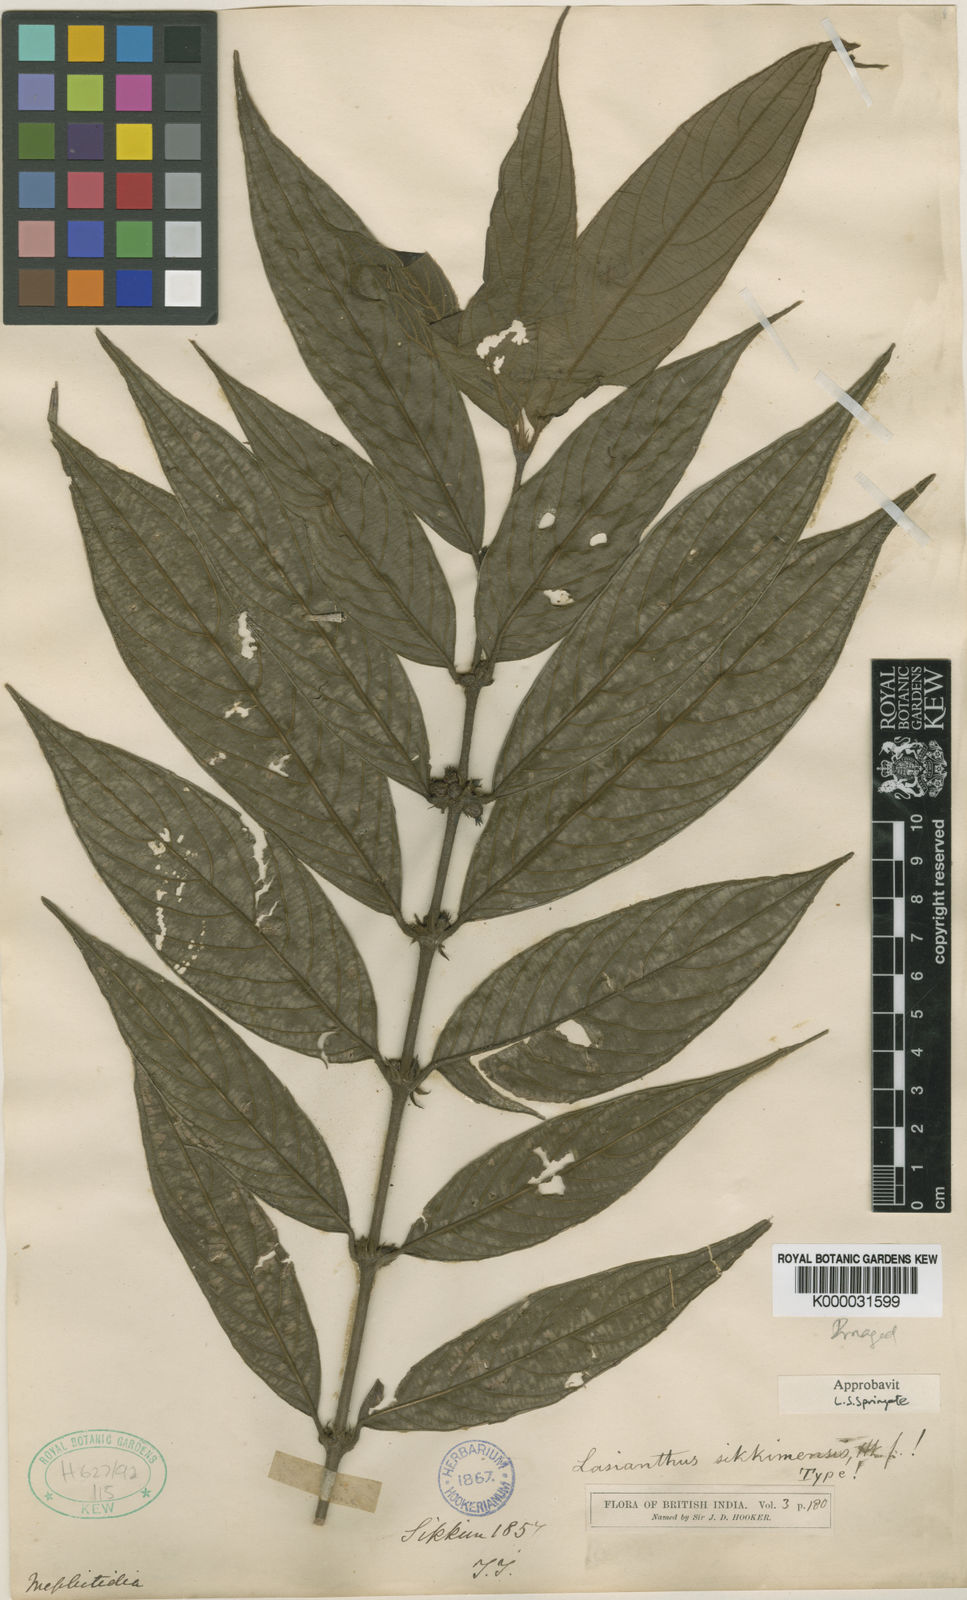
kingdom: Plantae
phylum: Tracheophyta
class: Magnoliopsida
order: Gentianales
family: Rubiaceae
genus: Lasianthus
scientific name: Lasianthus sikkimensis
